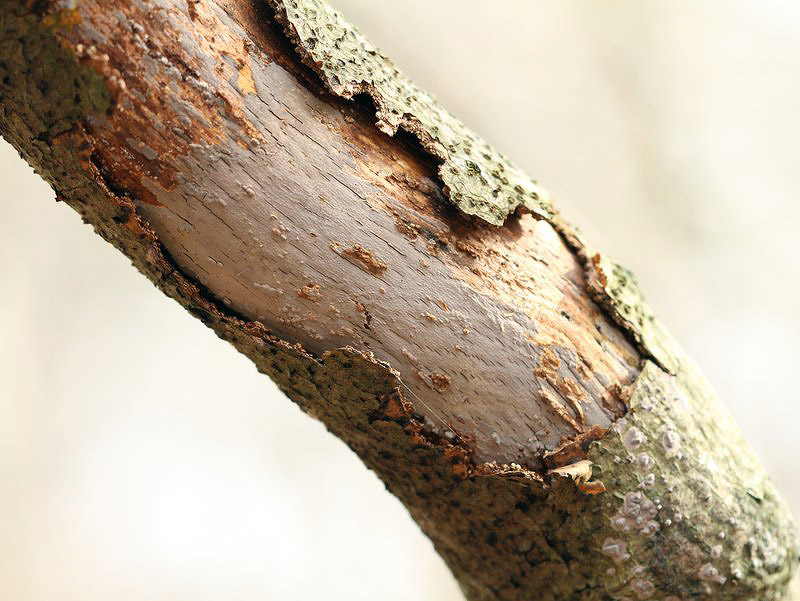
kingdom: Fungi
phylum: Basidiomycota
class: Agaricomycetes
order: Russulales
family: Peniophoraceae
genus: Peniophora
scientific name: Peniophora cinerea
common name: grå voksskind
